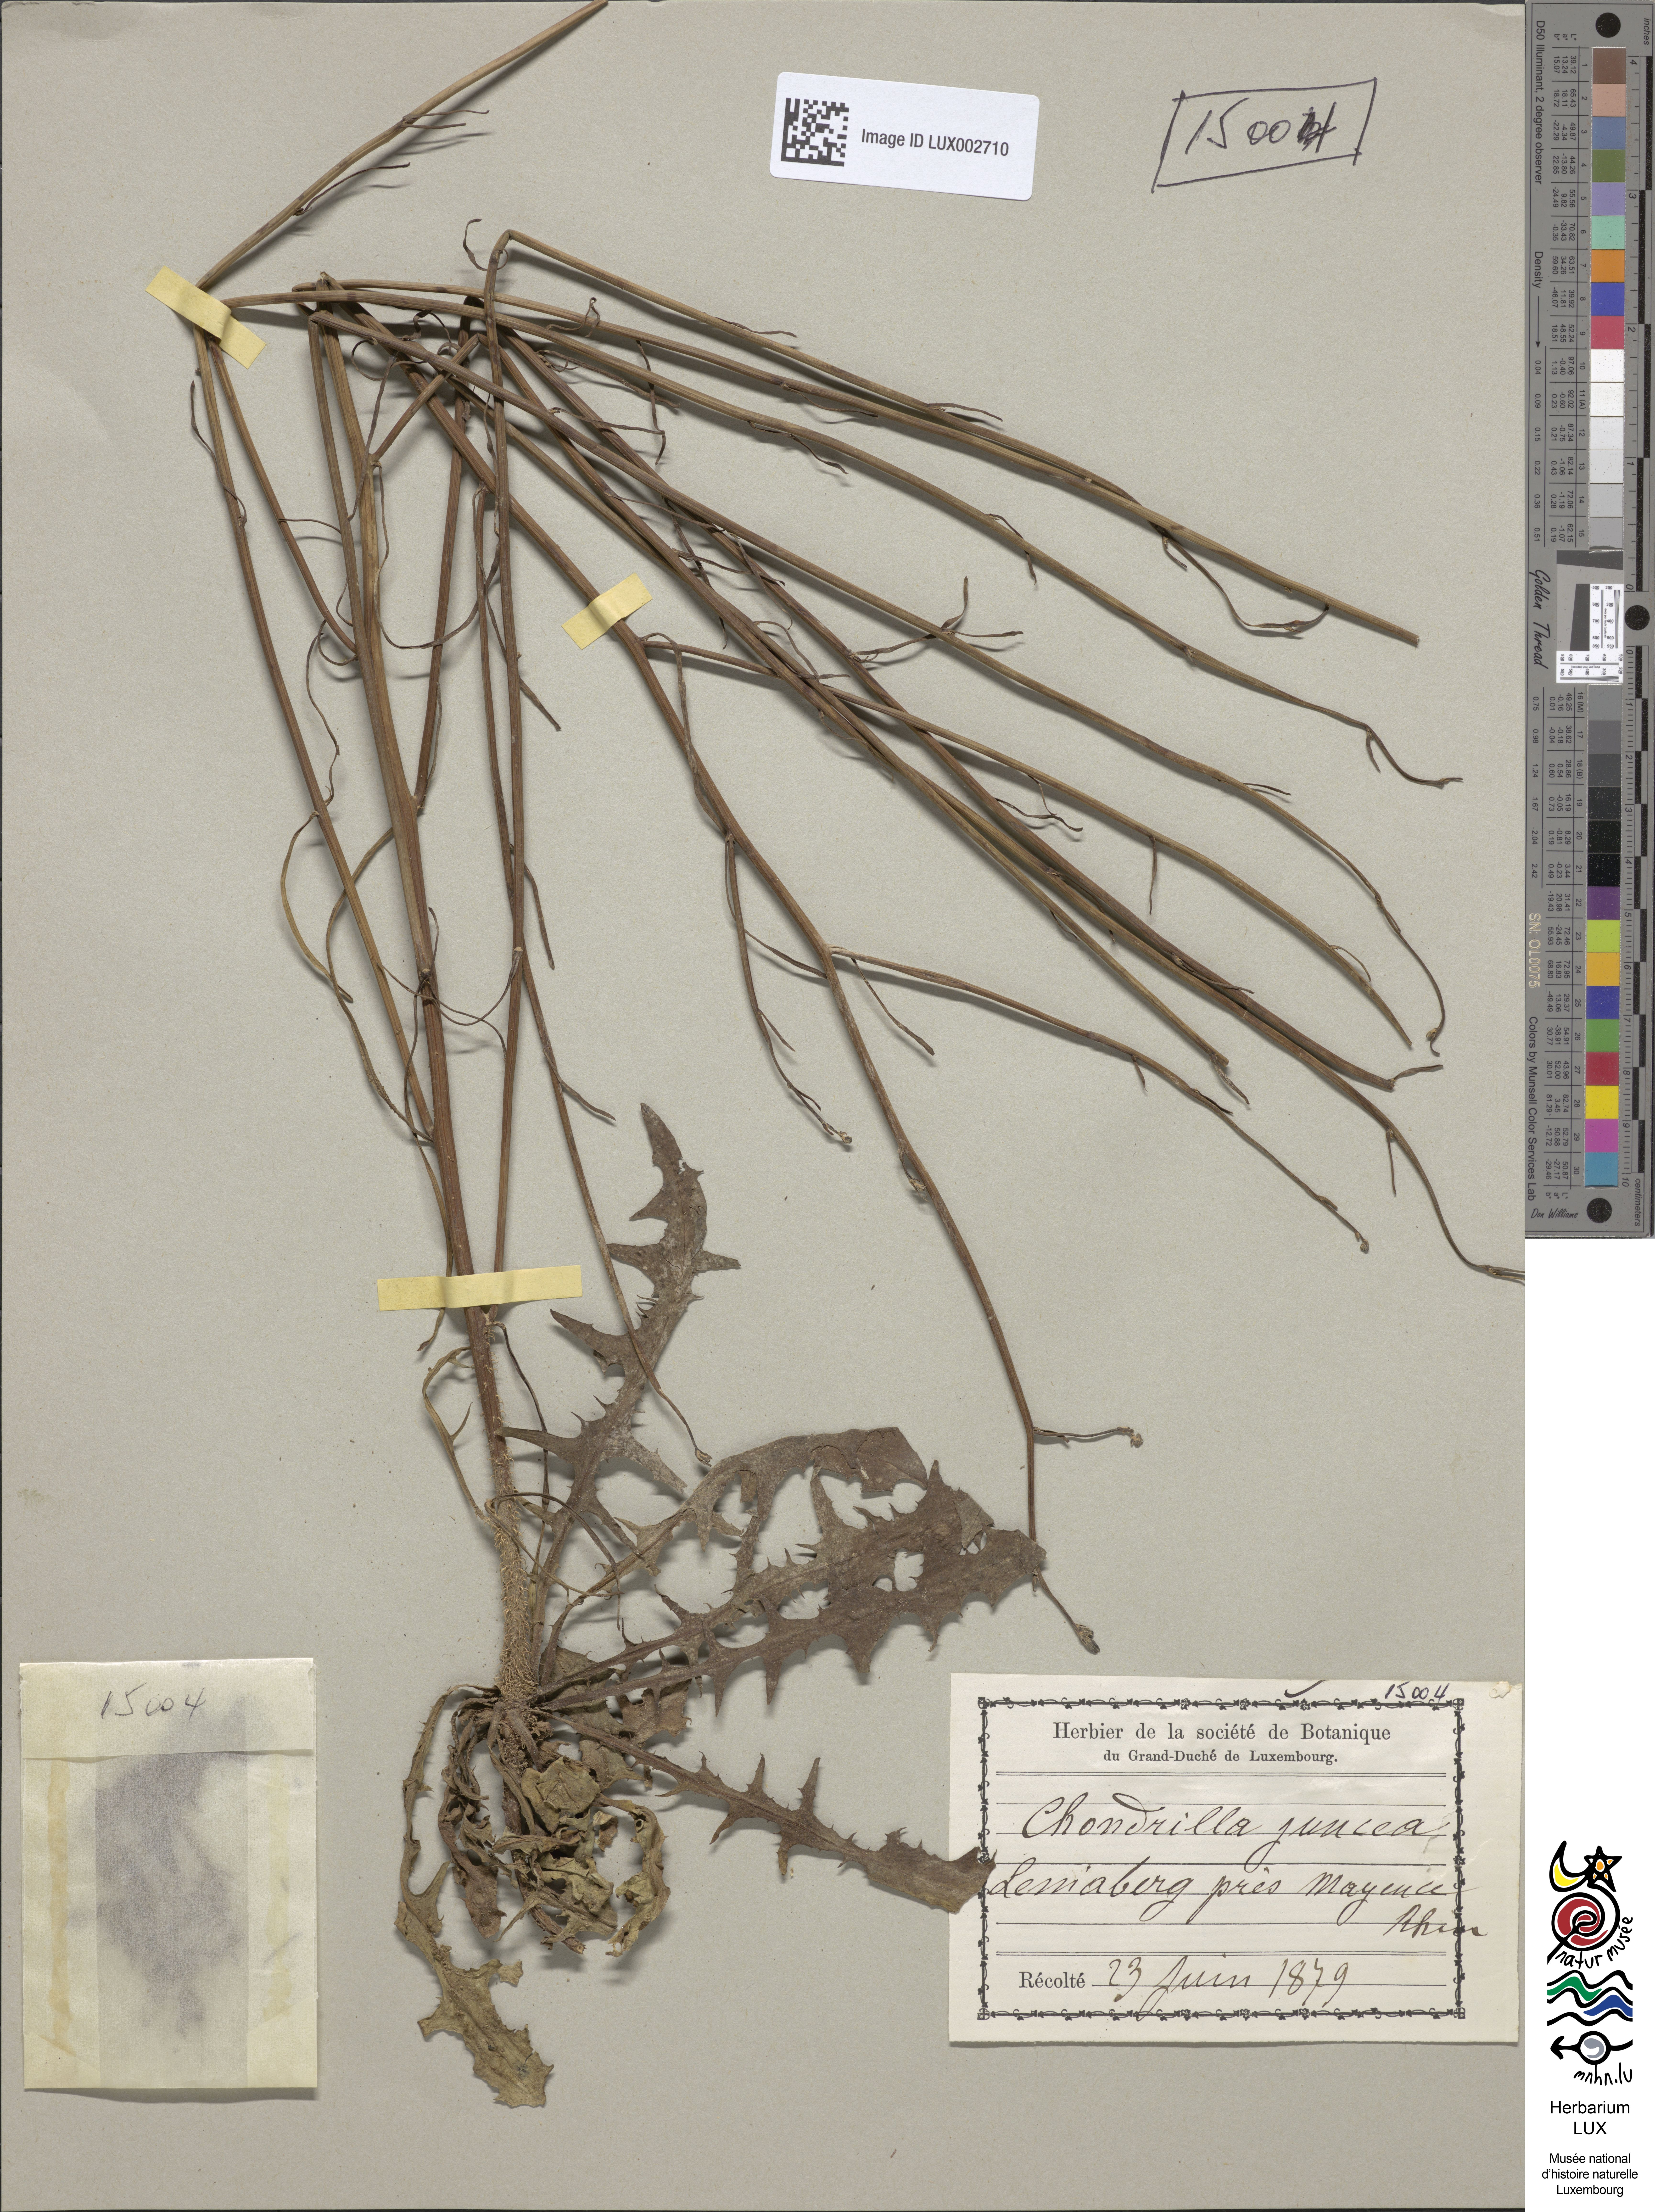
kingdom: Plantae
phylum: Tracheophyta
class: Magnoliopsida
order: Asterales
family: Asteraceae
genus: Chondrilla
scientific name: Chondrilla juncea
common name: Skeleton weed
